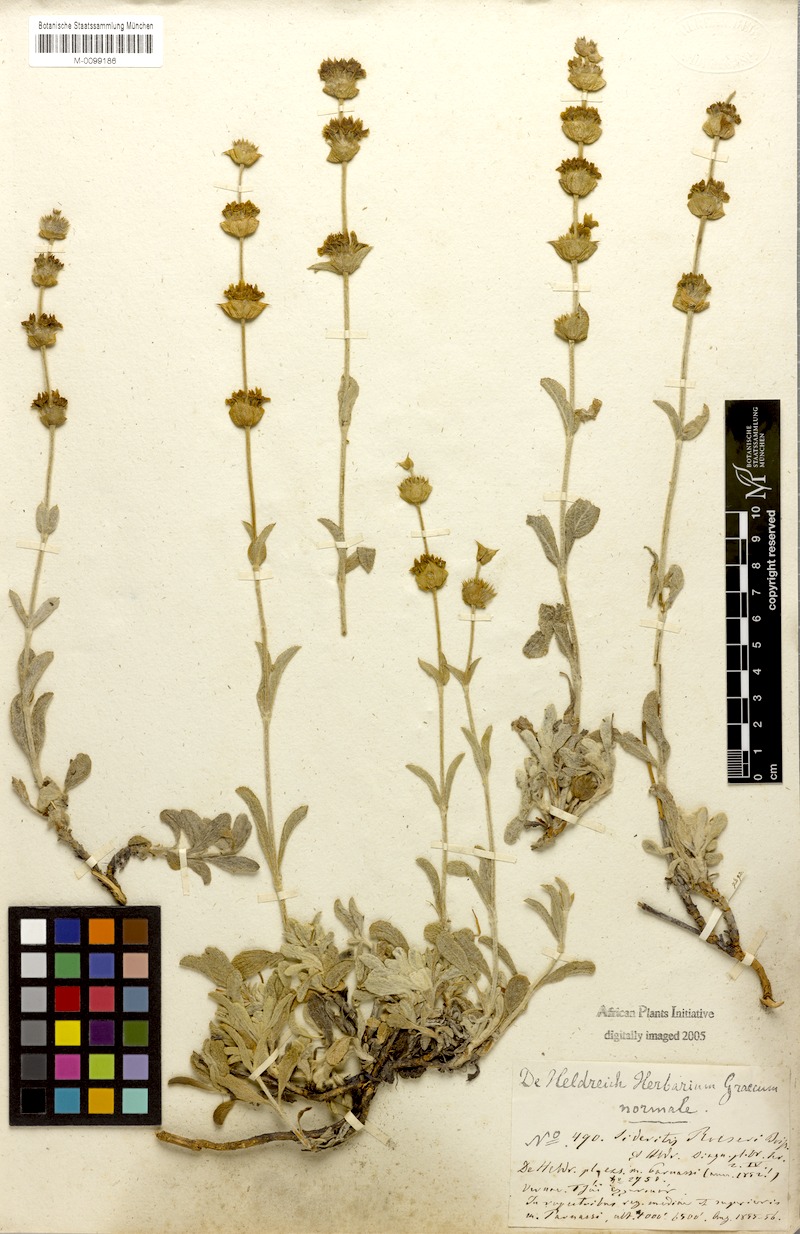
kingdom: Plantae
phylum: Tracheophyta
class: Magnoliopsida
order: Lamiales
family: Lamiaceae
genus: Sideritis
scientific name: Sideritis raeseri
